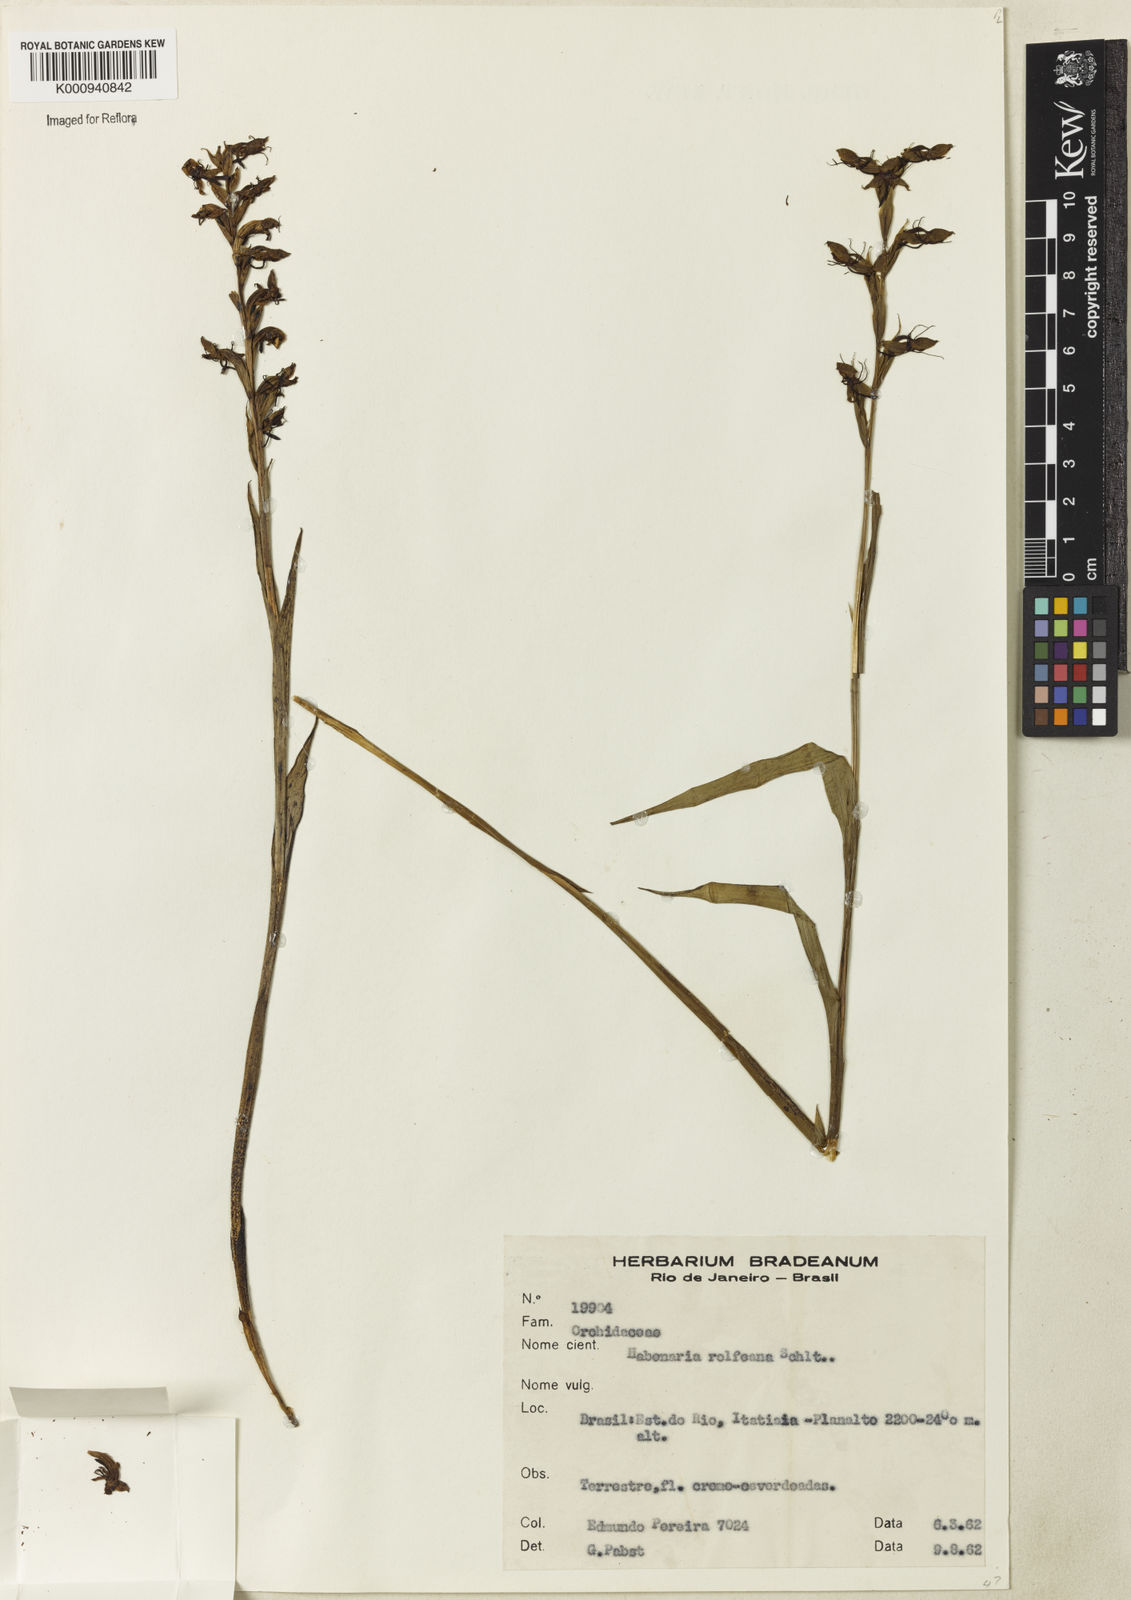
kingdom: Plantae
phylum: Tracheophyta
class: Liliopsida
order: Asparagales
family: Orchidaceae
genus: Habenaria
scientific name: Habenaria rolfeana
